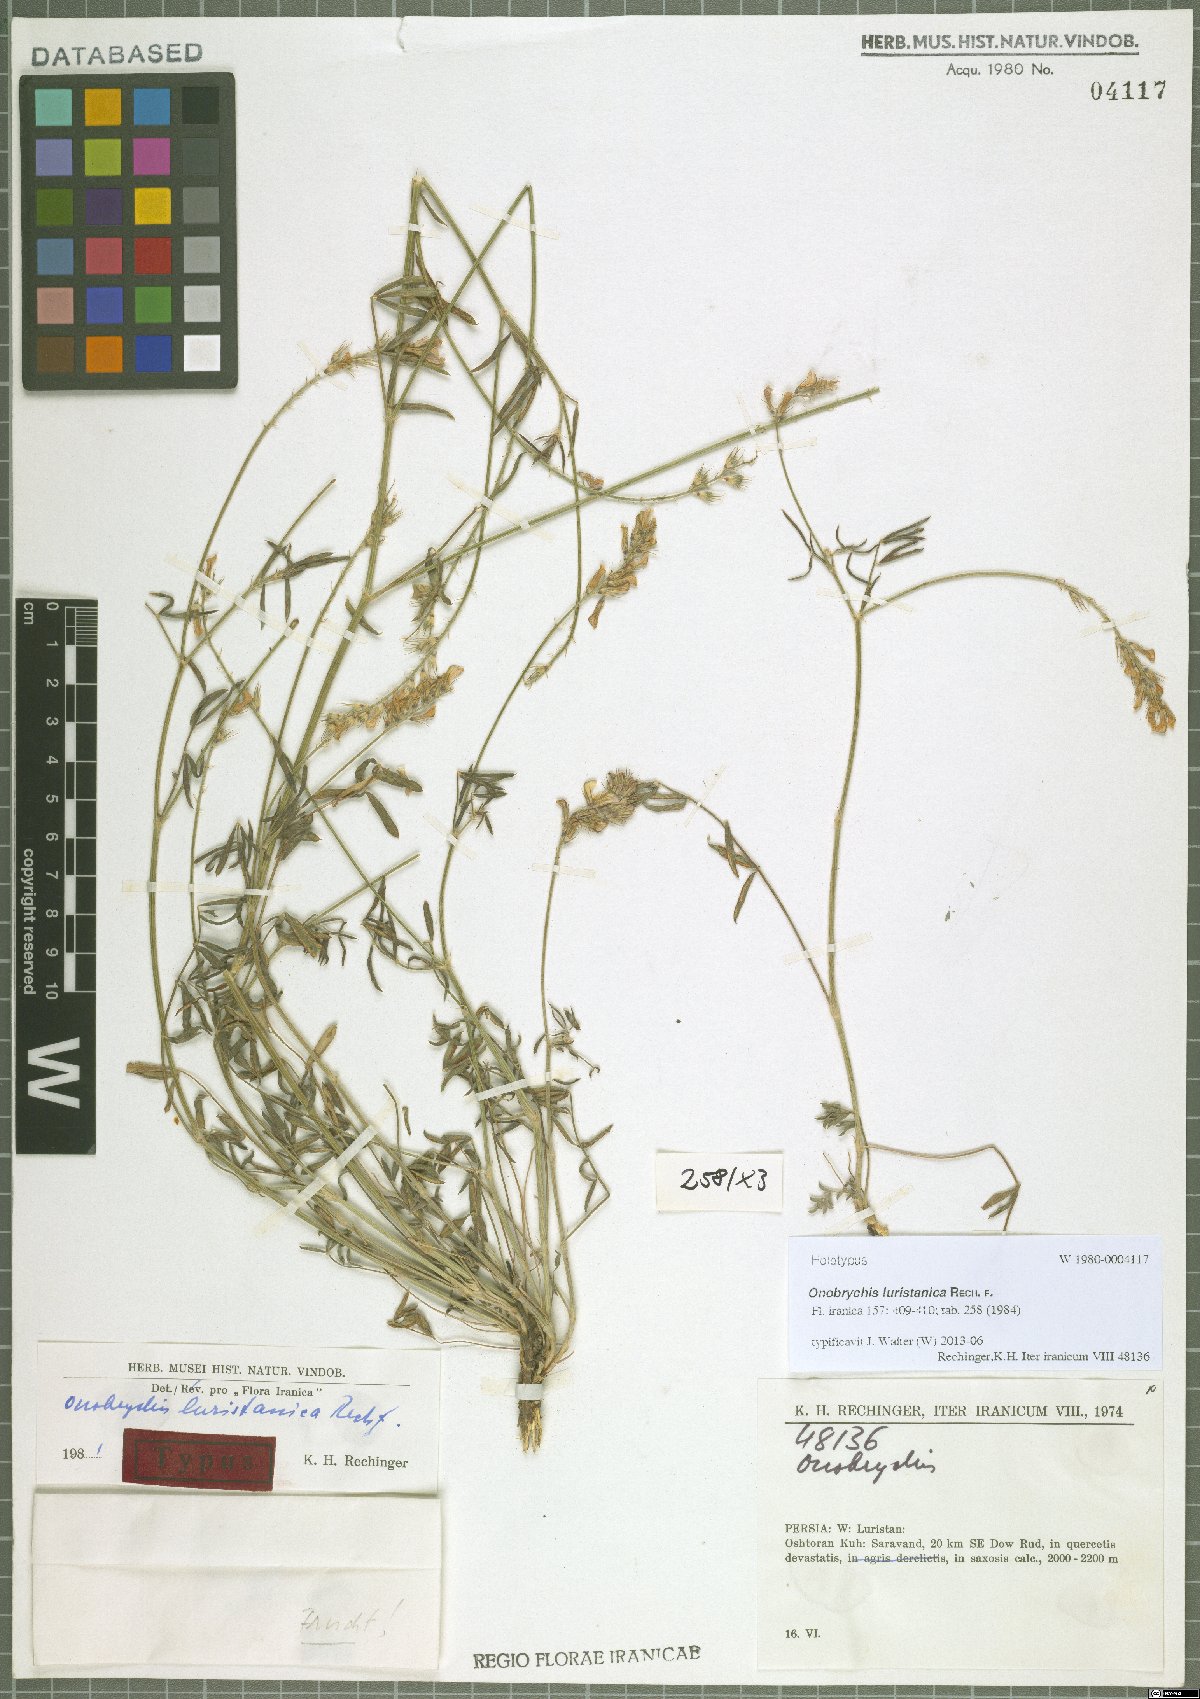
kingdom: Plantae
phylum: Tracheophyta
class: Magnoliopsida
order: Fabales
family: Fabaceae
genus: Onobrychis
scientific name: Onobrychis luristanica
